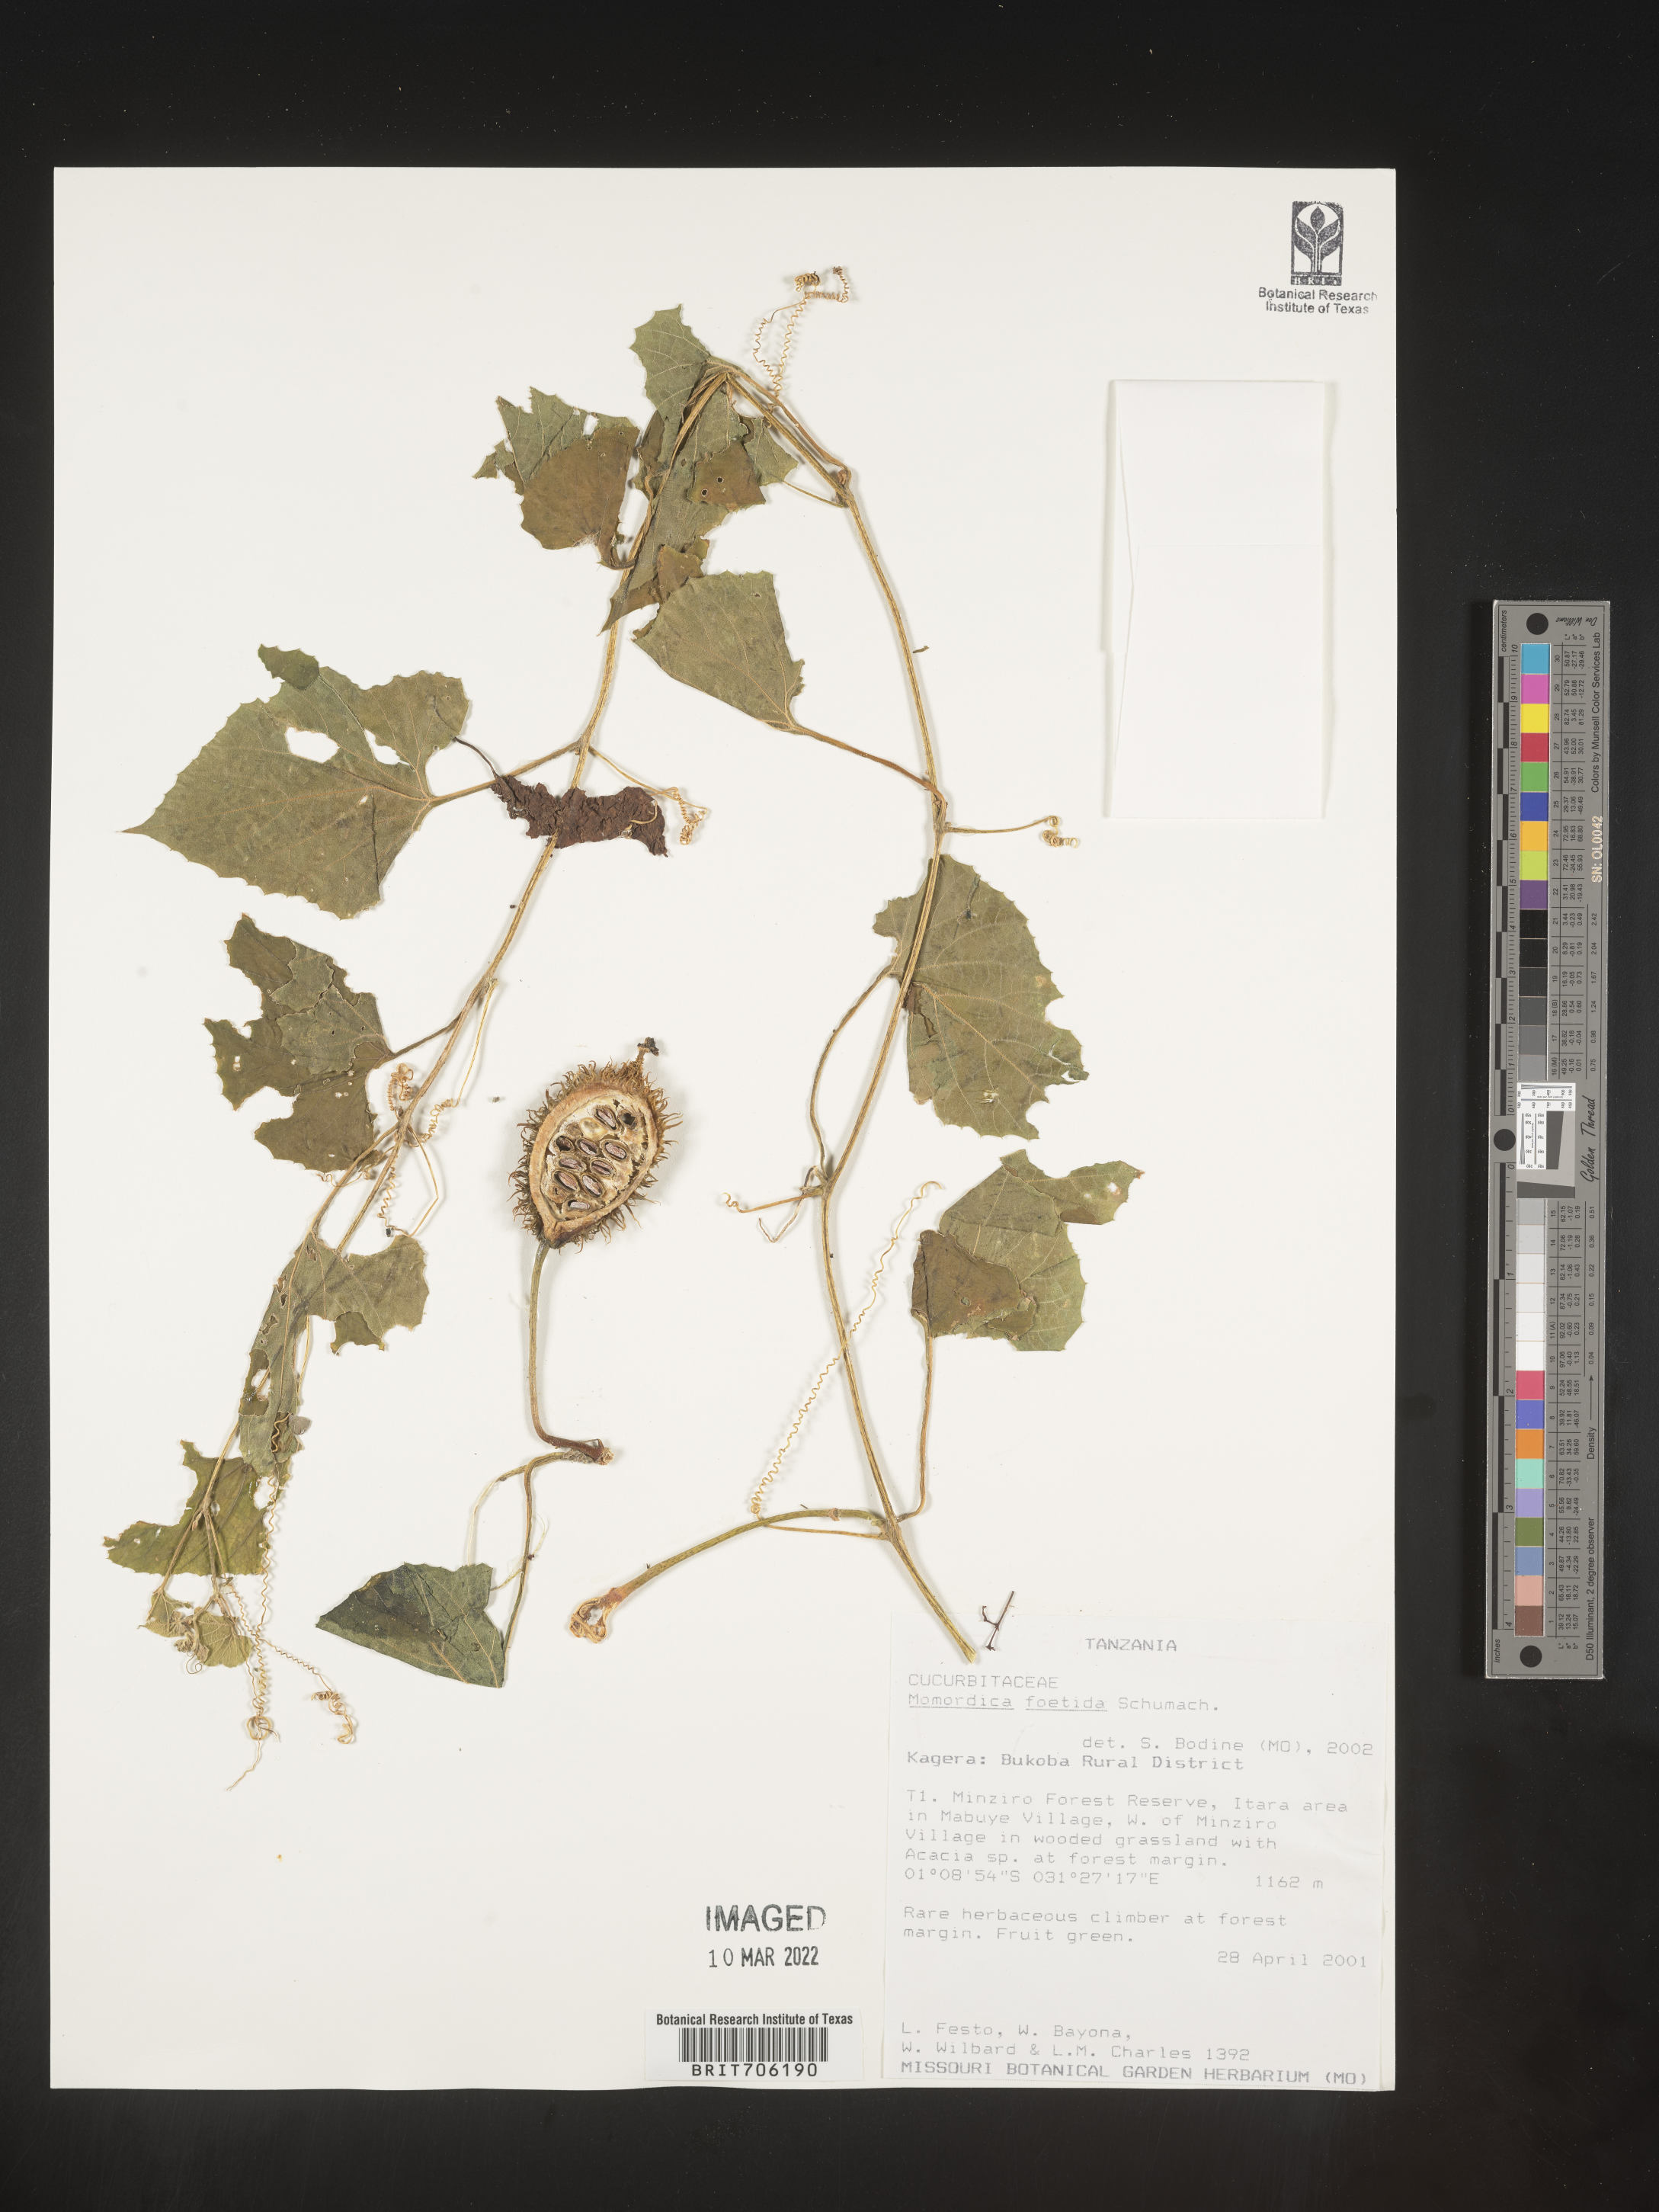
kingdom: Plantae
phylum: Tracheophyta
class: Magnoliopsida
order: Cucurbitales
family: Cucurbitaceae
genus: Momordica
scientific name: Momordica
